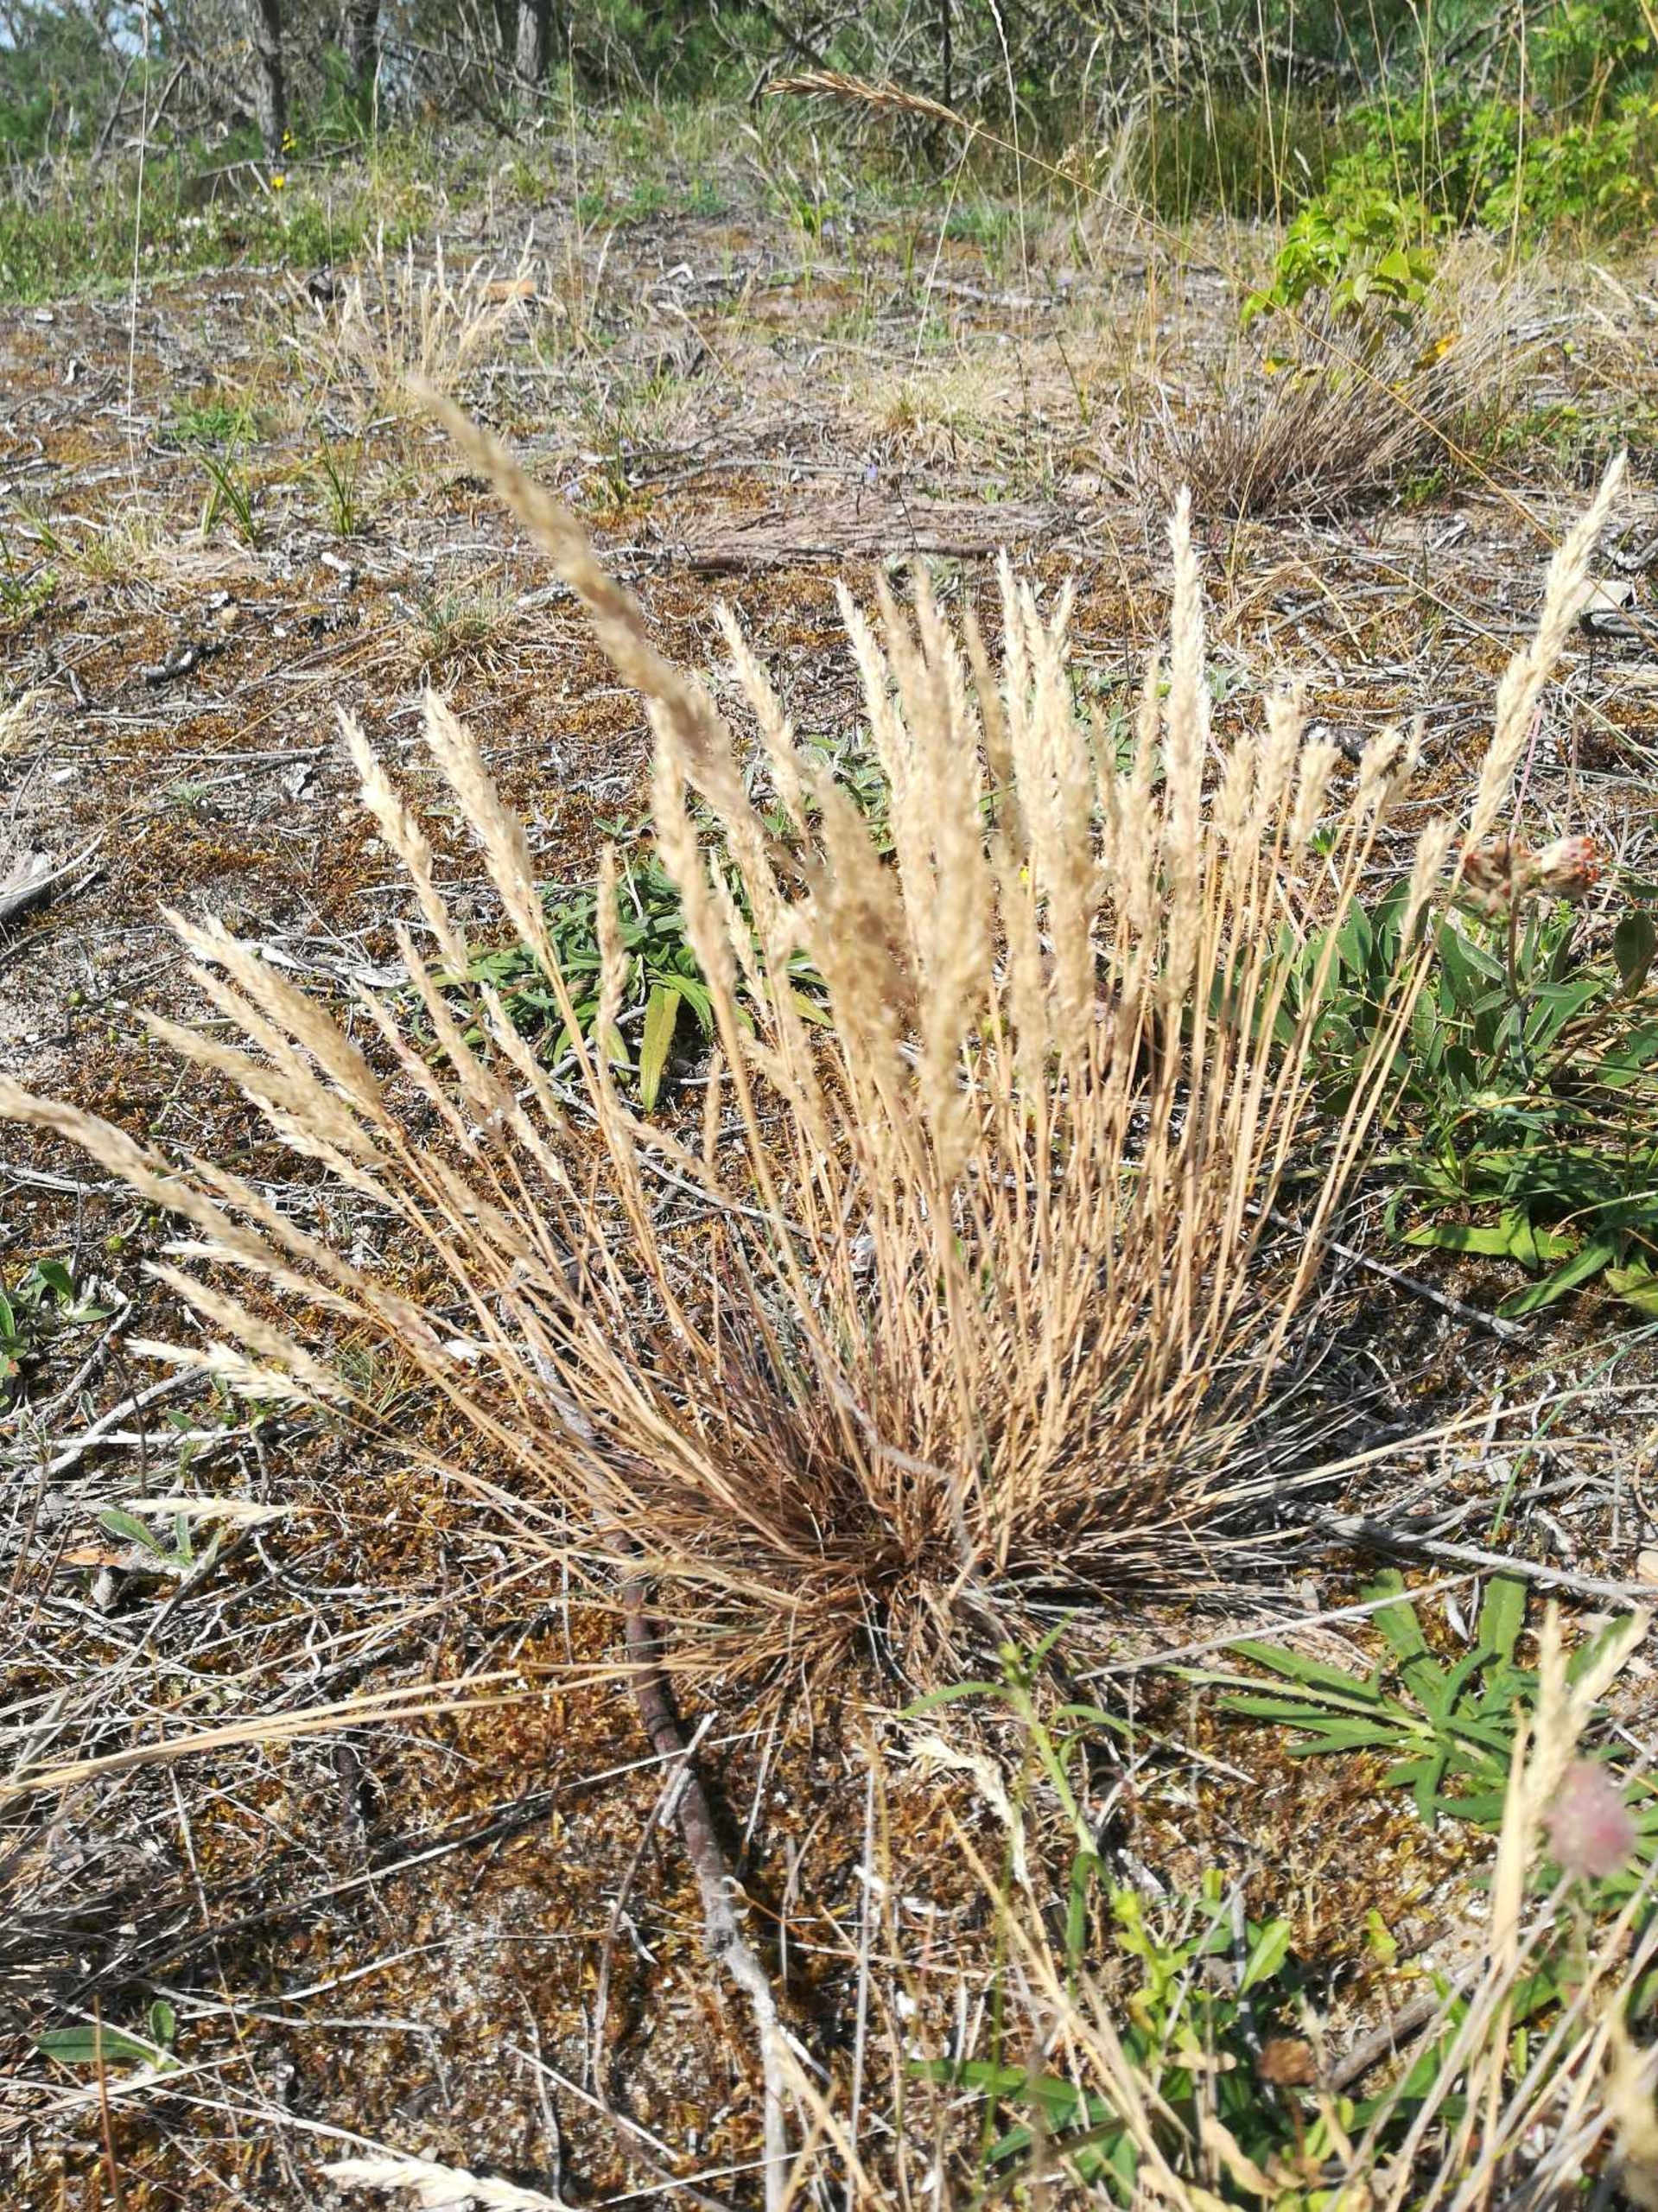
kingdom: Plantae
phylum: Tracheophyta
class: Liliopsida
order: Poales
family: Poaceae
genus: Corynephorus
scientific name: Corynephorus canescens
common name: Sandskæg
